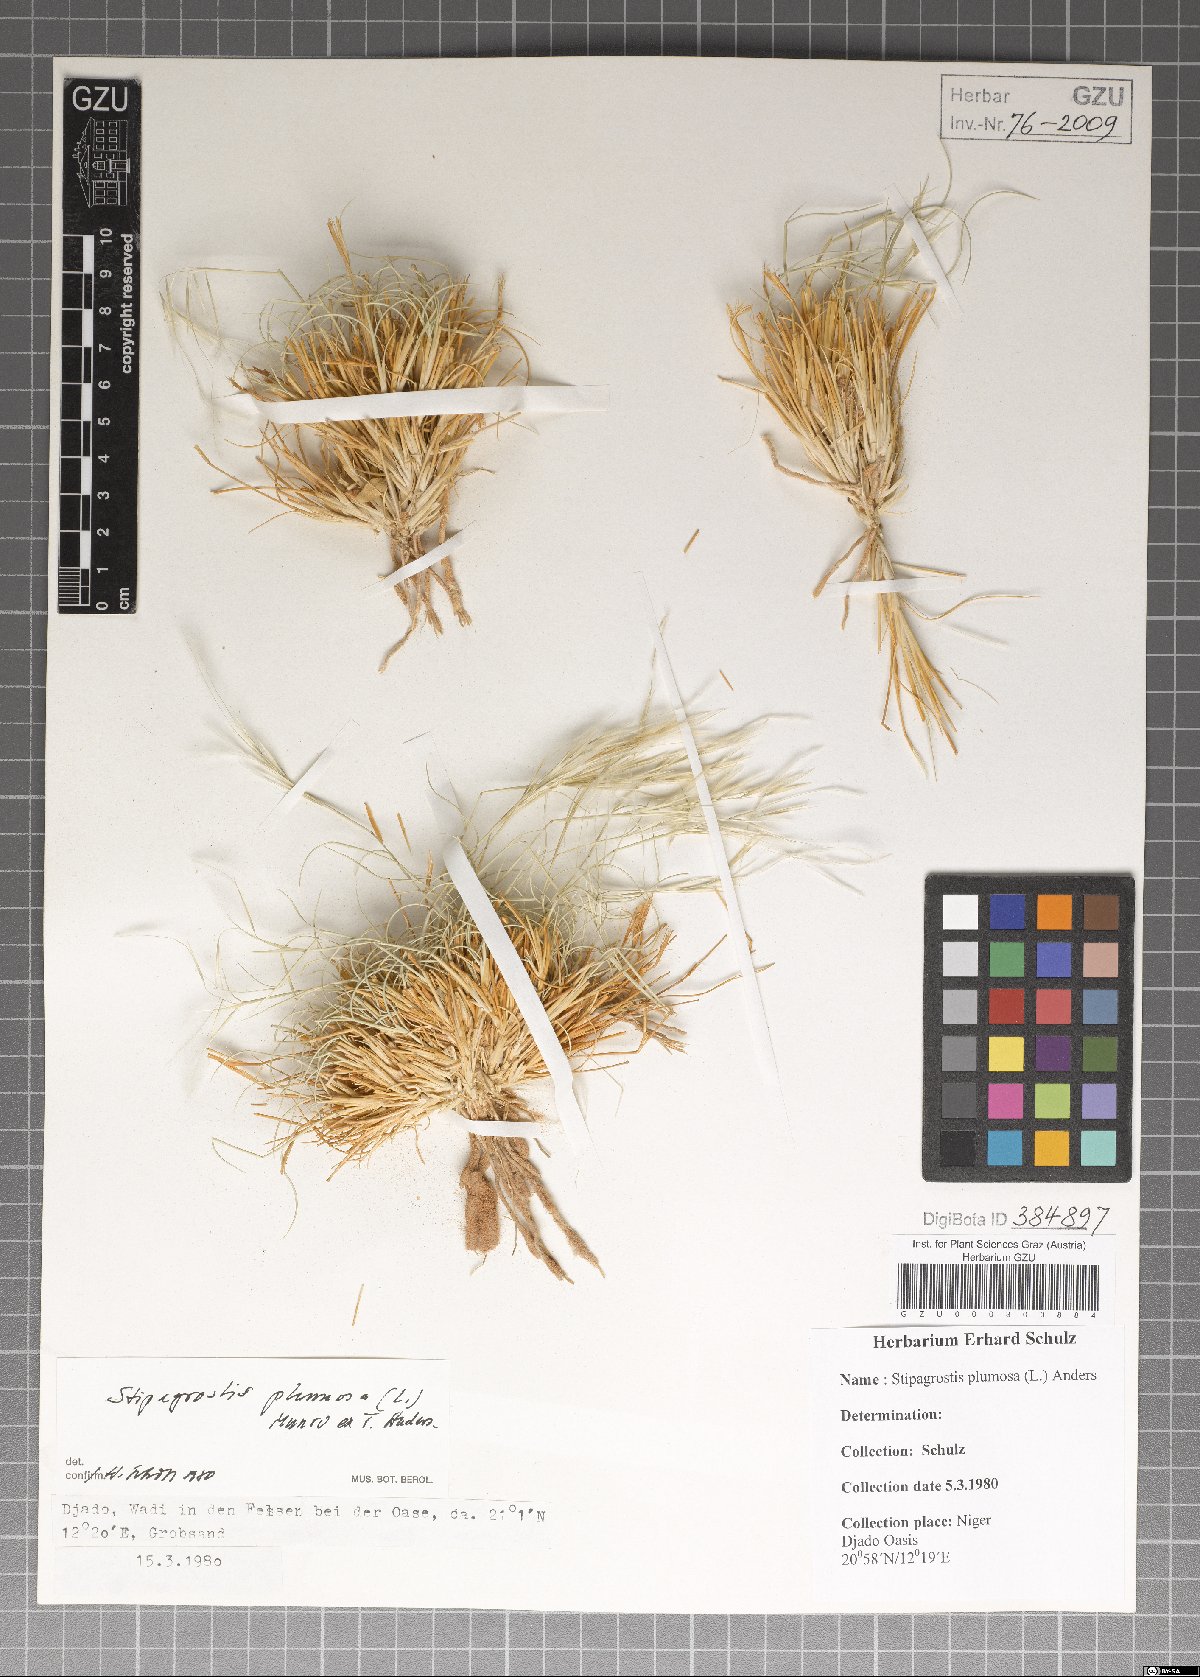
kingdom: Plantae
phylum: Tracheophyta
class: Liliopsida
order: Poales
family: Poaceae
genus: Stipagrostis
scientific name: Stipagrostis plumosa
